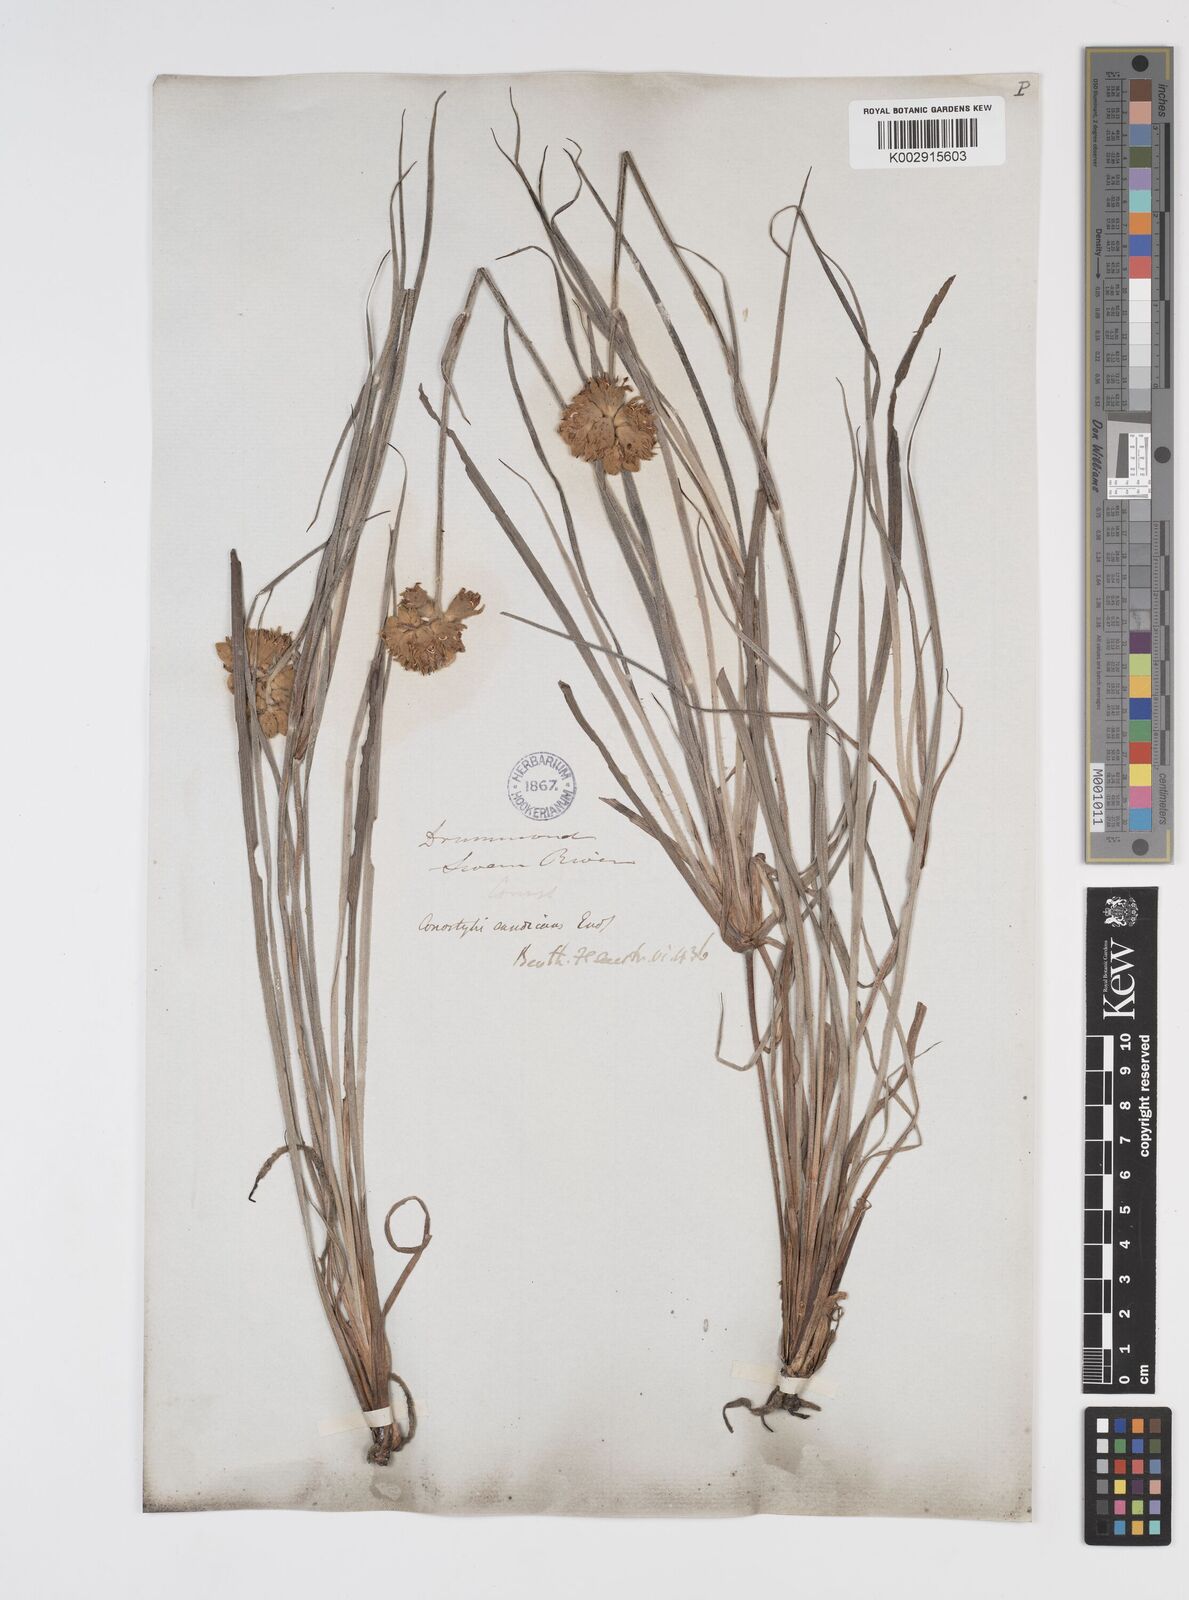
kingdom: Plantae
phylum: Tracheophyta
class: Liliopsida
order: Commelinales
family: Haemodoraceae
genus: Conostylis
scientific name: Conostylis candicans
